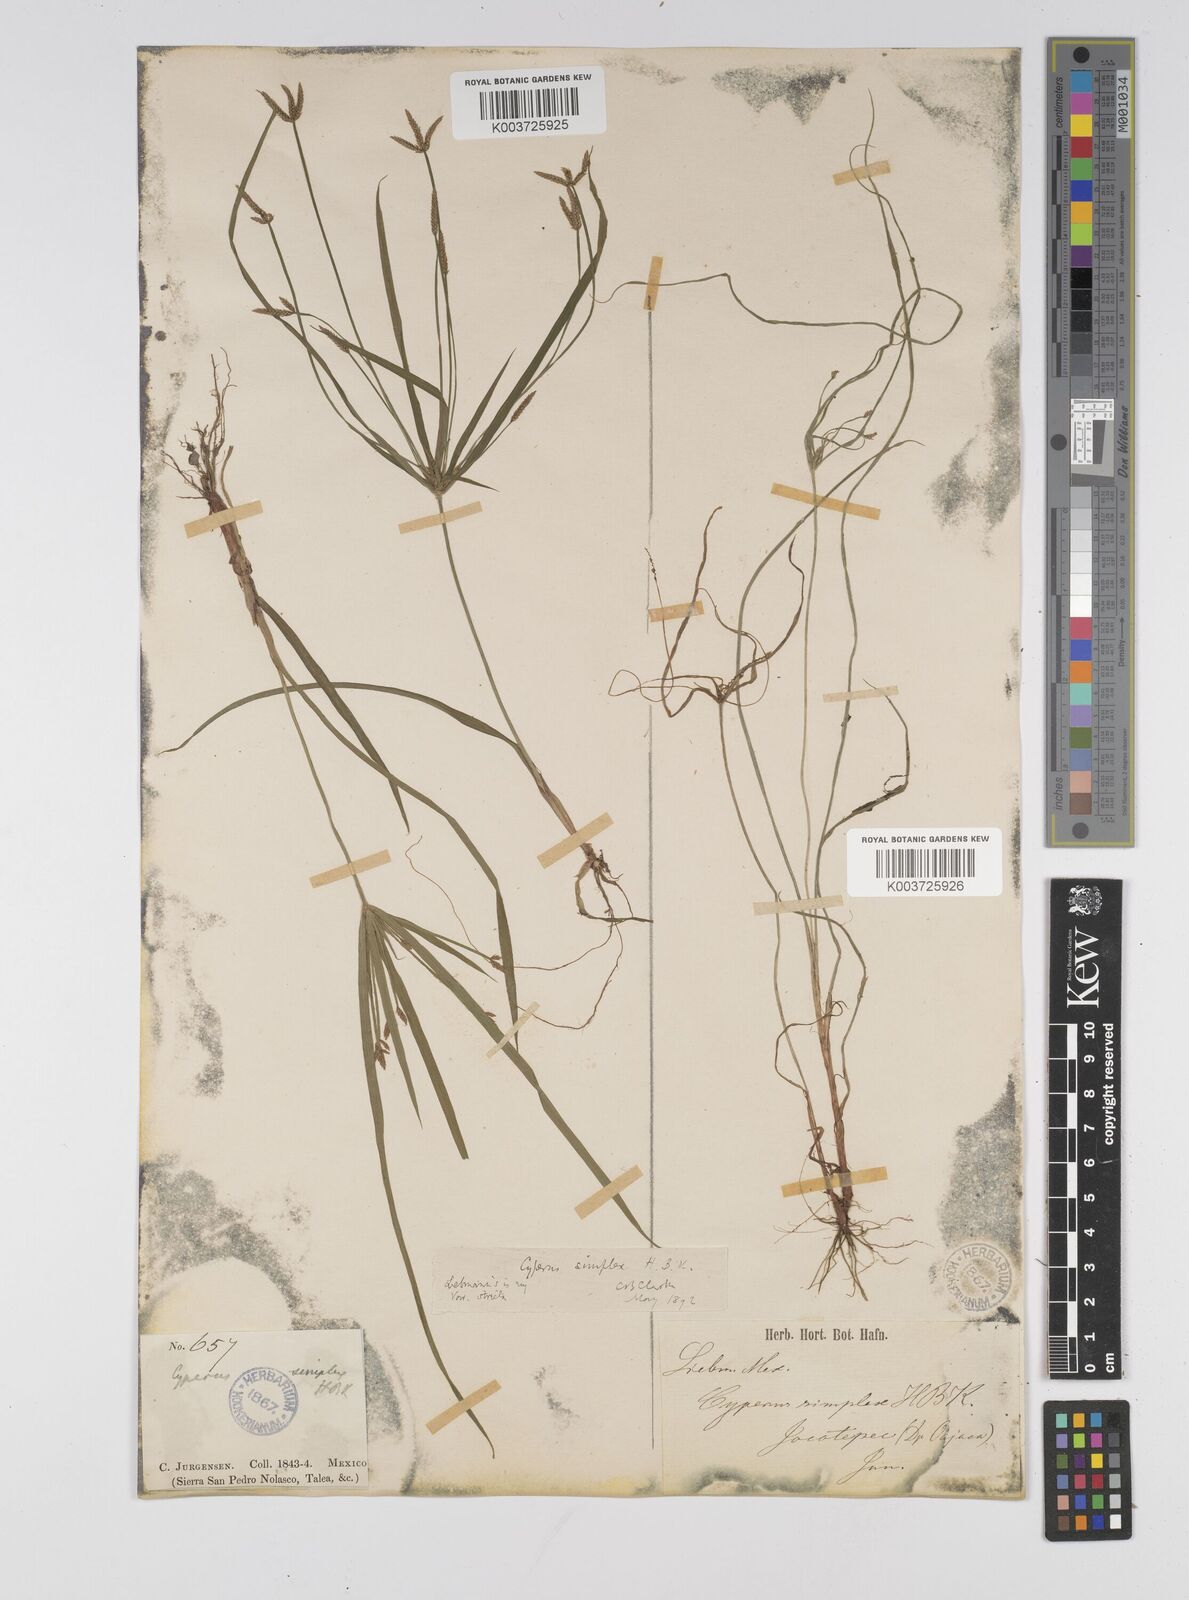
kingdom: Plantae
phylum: Tracheophyta
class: Liliopsida
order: Poales
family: Cyperaceae
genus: Cyperus
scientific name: Cyperus simplex
